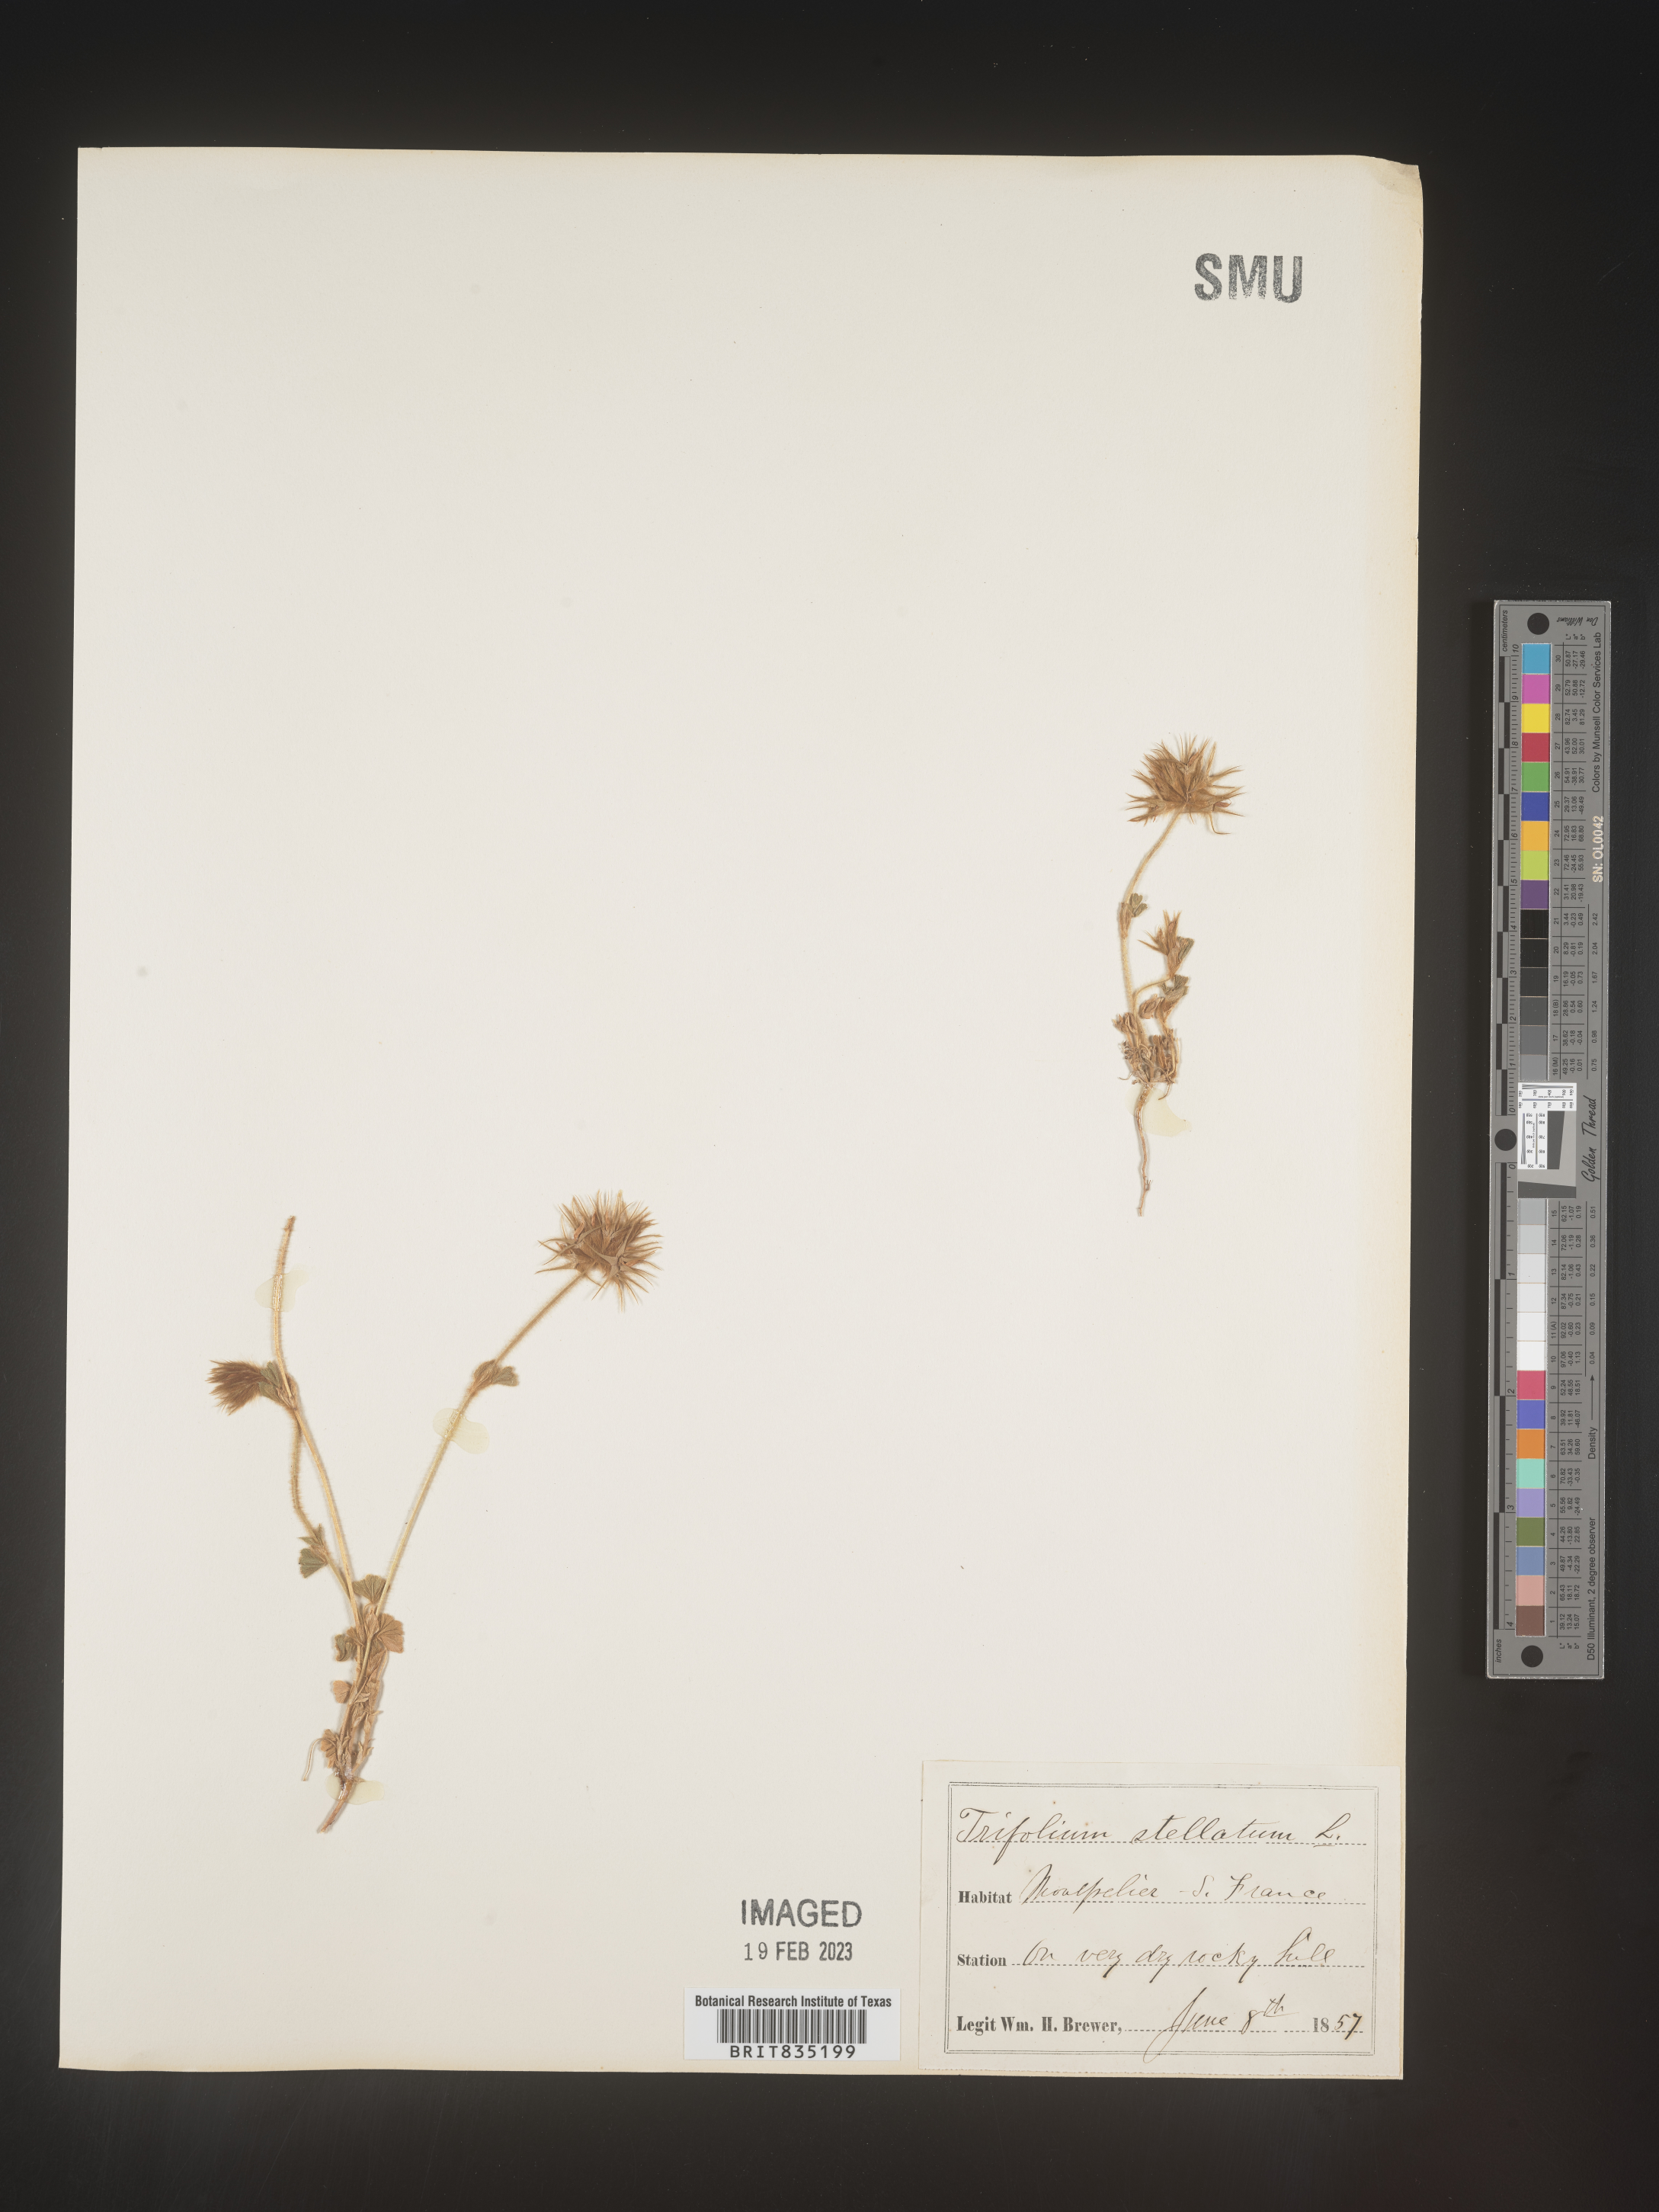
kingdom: Plantae
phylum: Tracheophyta
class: Magnoliopsida
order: Fabales
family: Fabaceae
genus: Trifolium
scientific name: Trifolium
